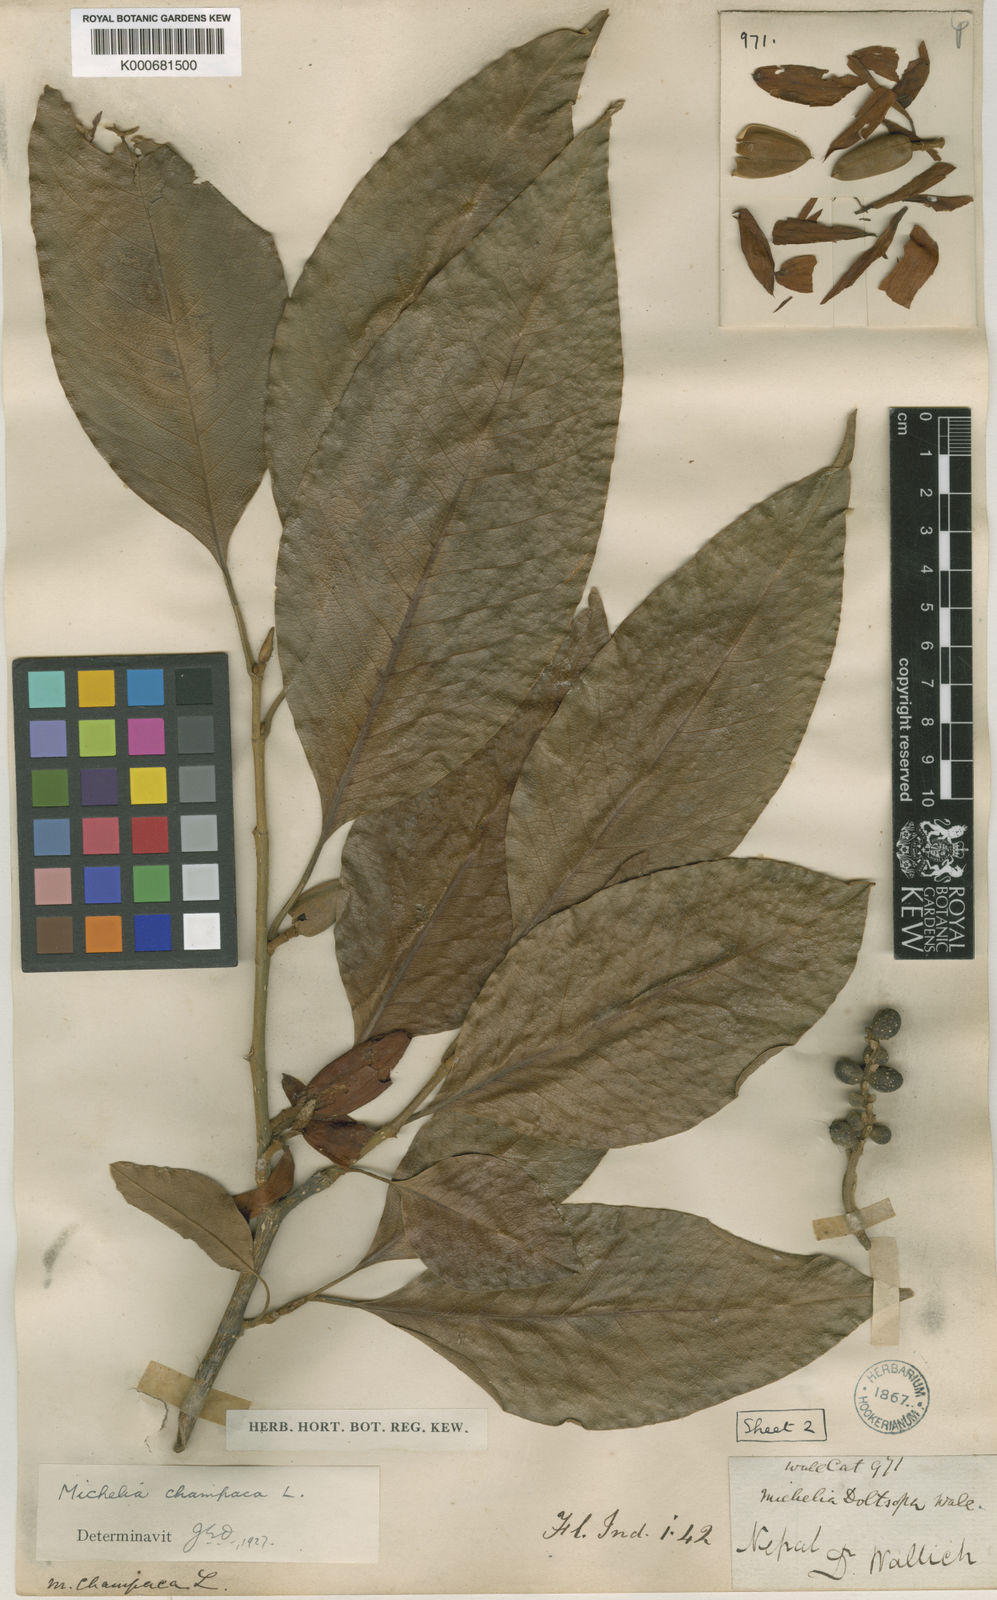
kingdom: Plantae
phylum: Tracheophyta
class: Magnoliopsida
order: Magnoliales
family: Magnoliaceae
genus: Magnolia
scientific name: Magnolia champaca
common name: Champak
